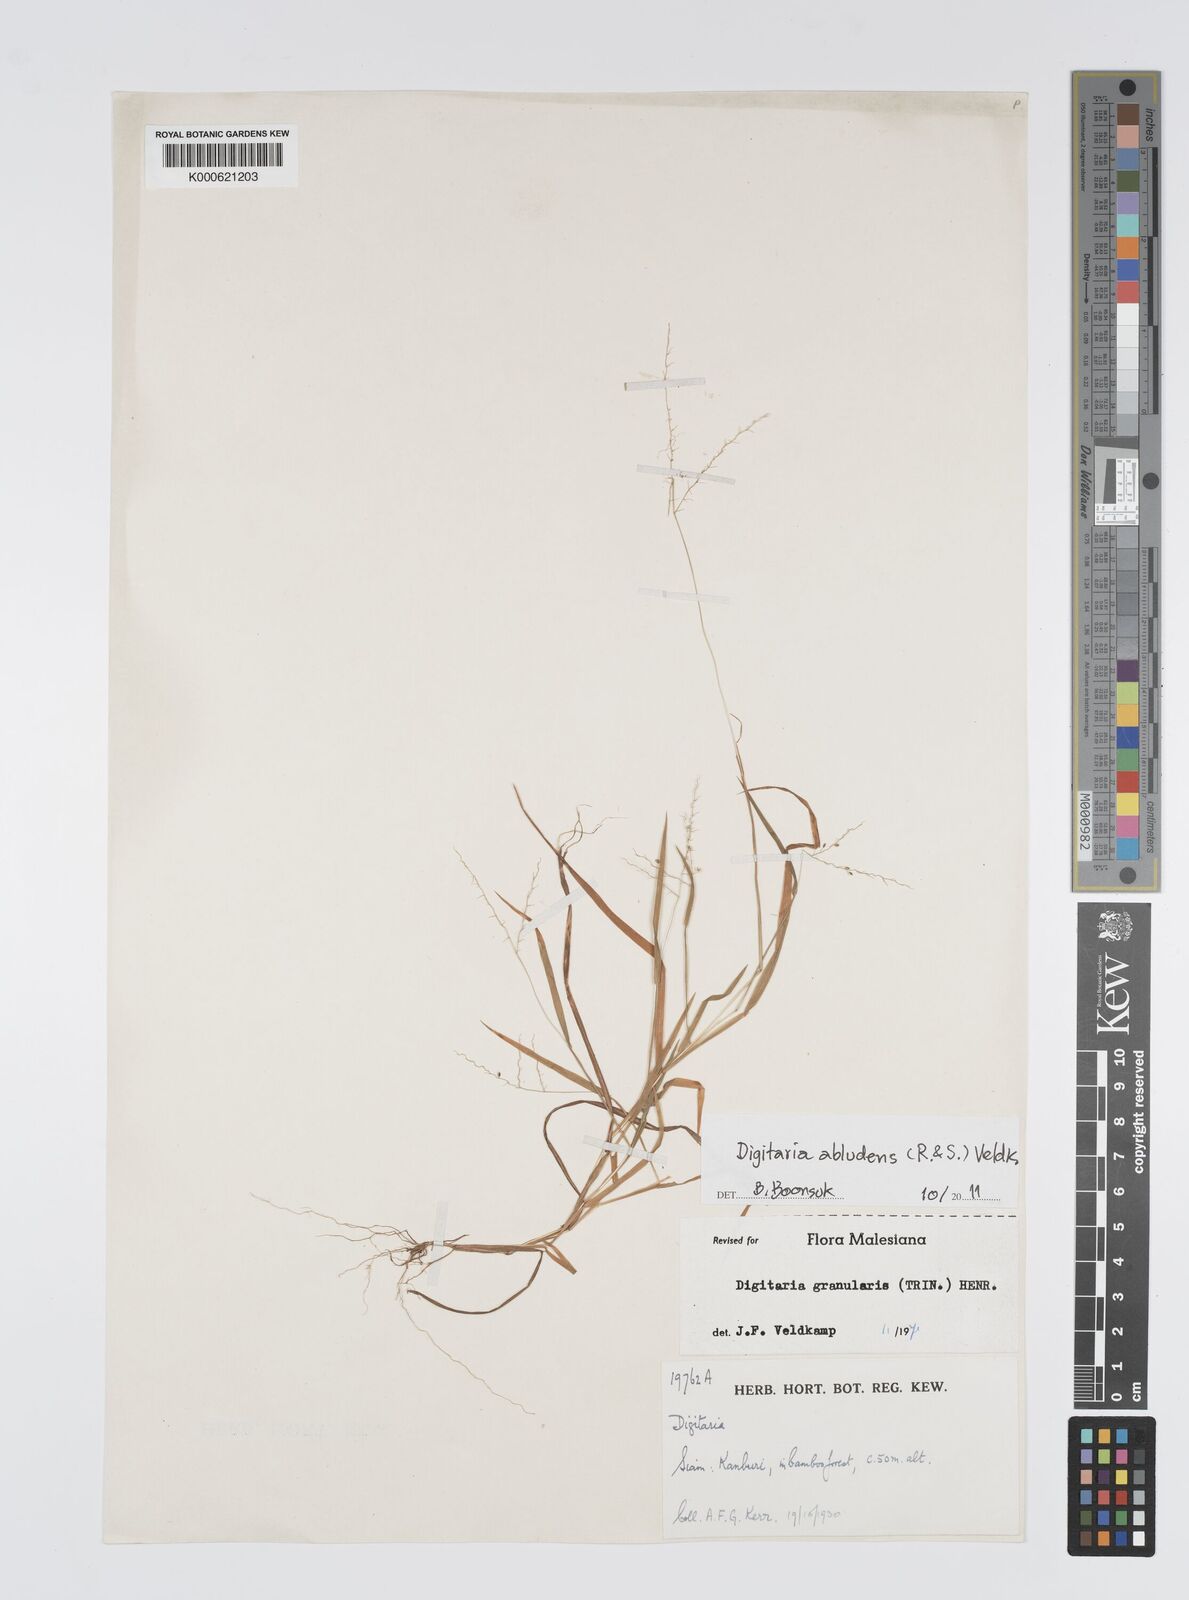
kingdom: Plantae
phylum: Tracheophyta
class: Liliopsida
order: Poales
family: Poaceae
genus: Digitaria
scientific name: Digitaria abludens
